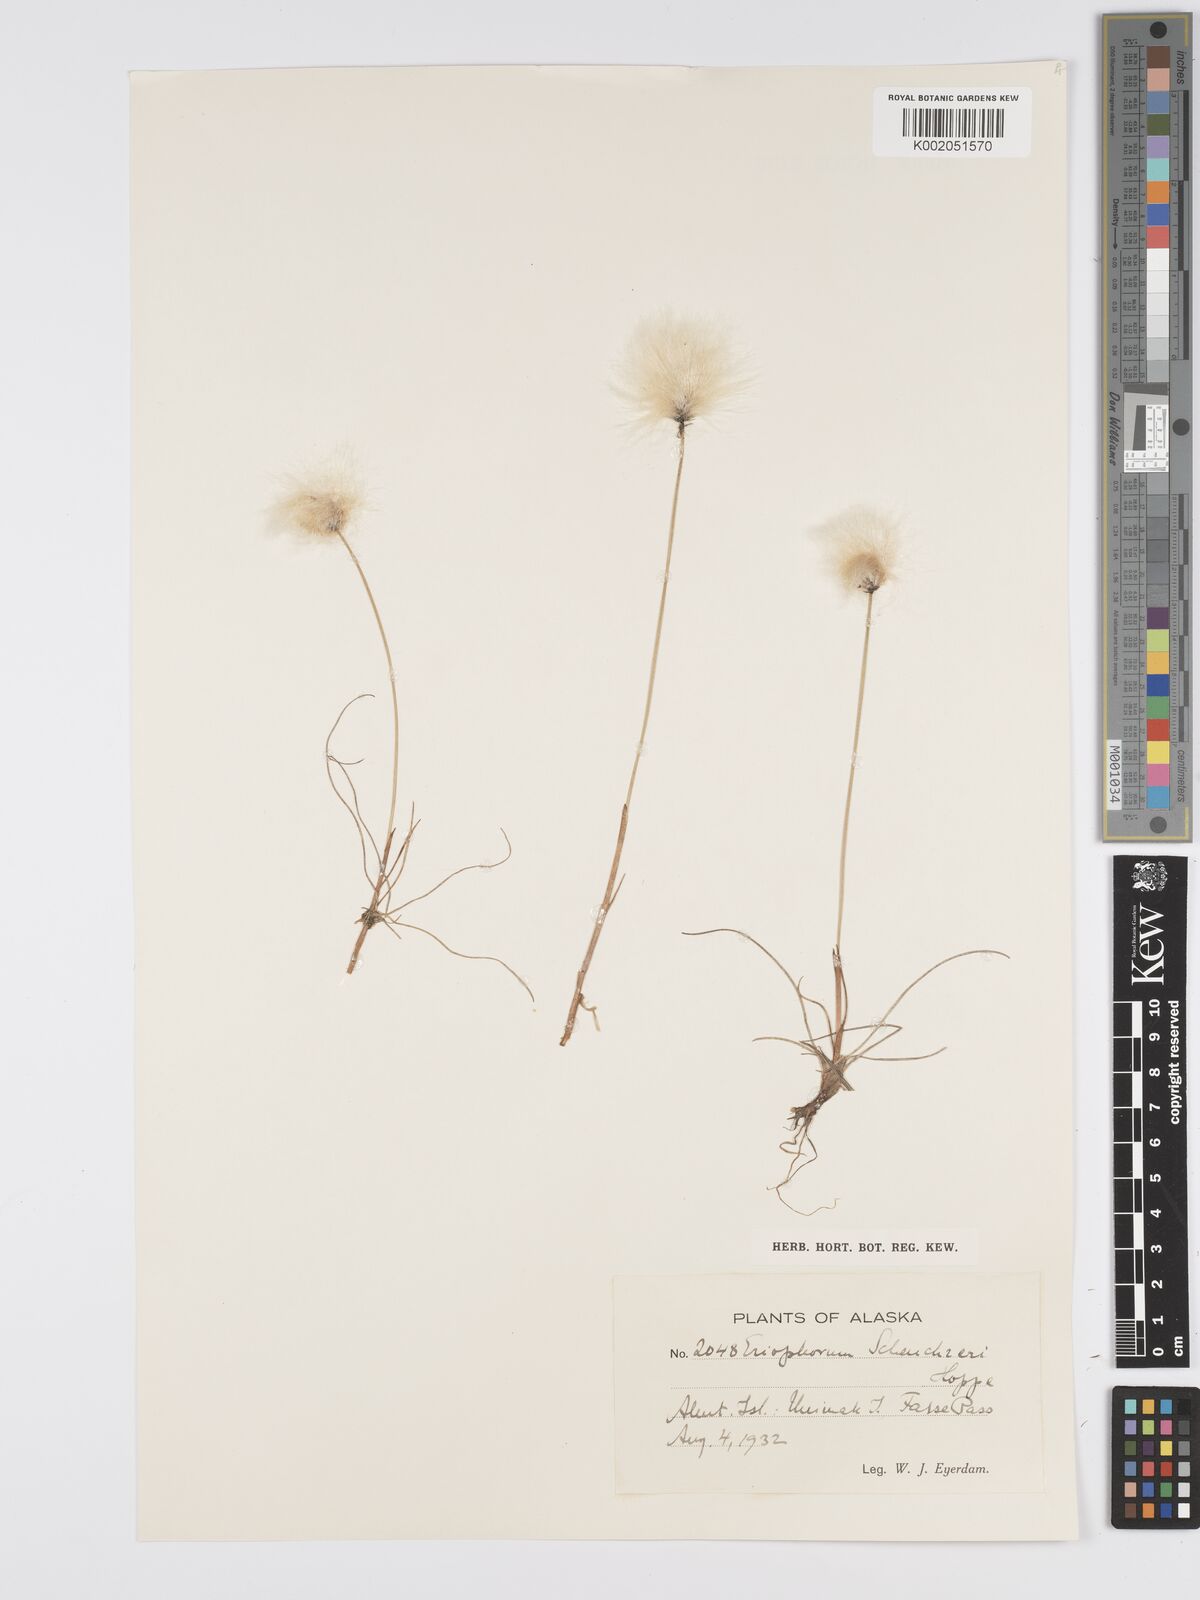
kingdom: Plantae
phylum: Tracheophyta
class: Liliopsida
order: Poales
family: Cyperaceae
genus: Eriophorum
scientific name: Eriophorum scheuchzeri
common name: Scheuchzer's cottongrass
